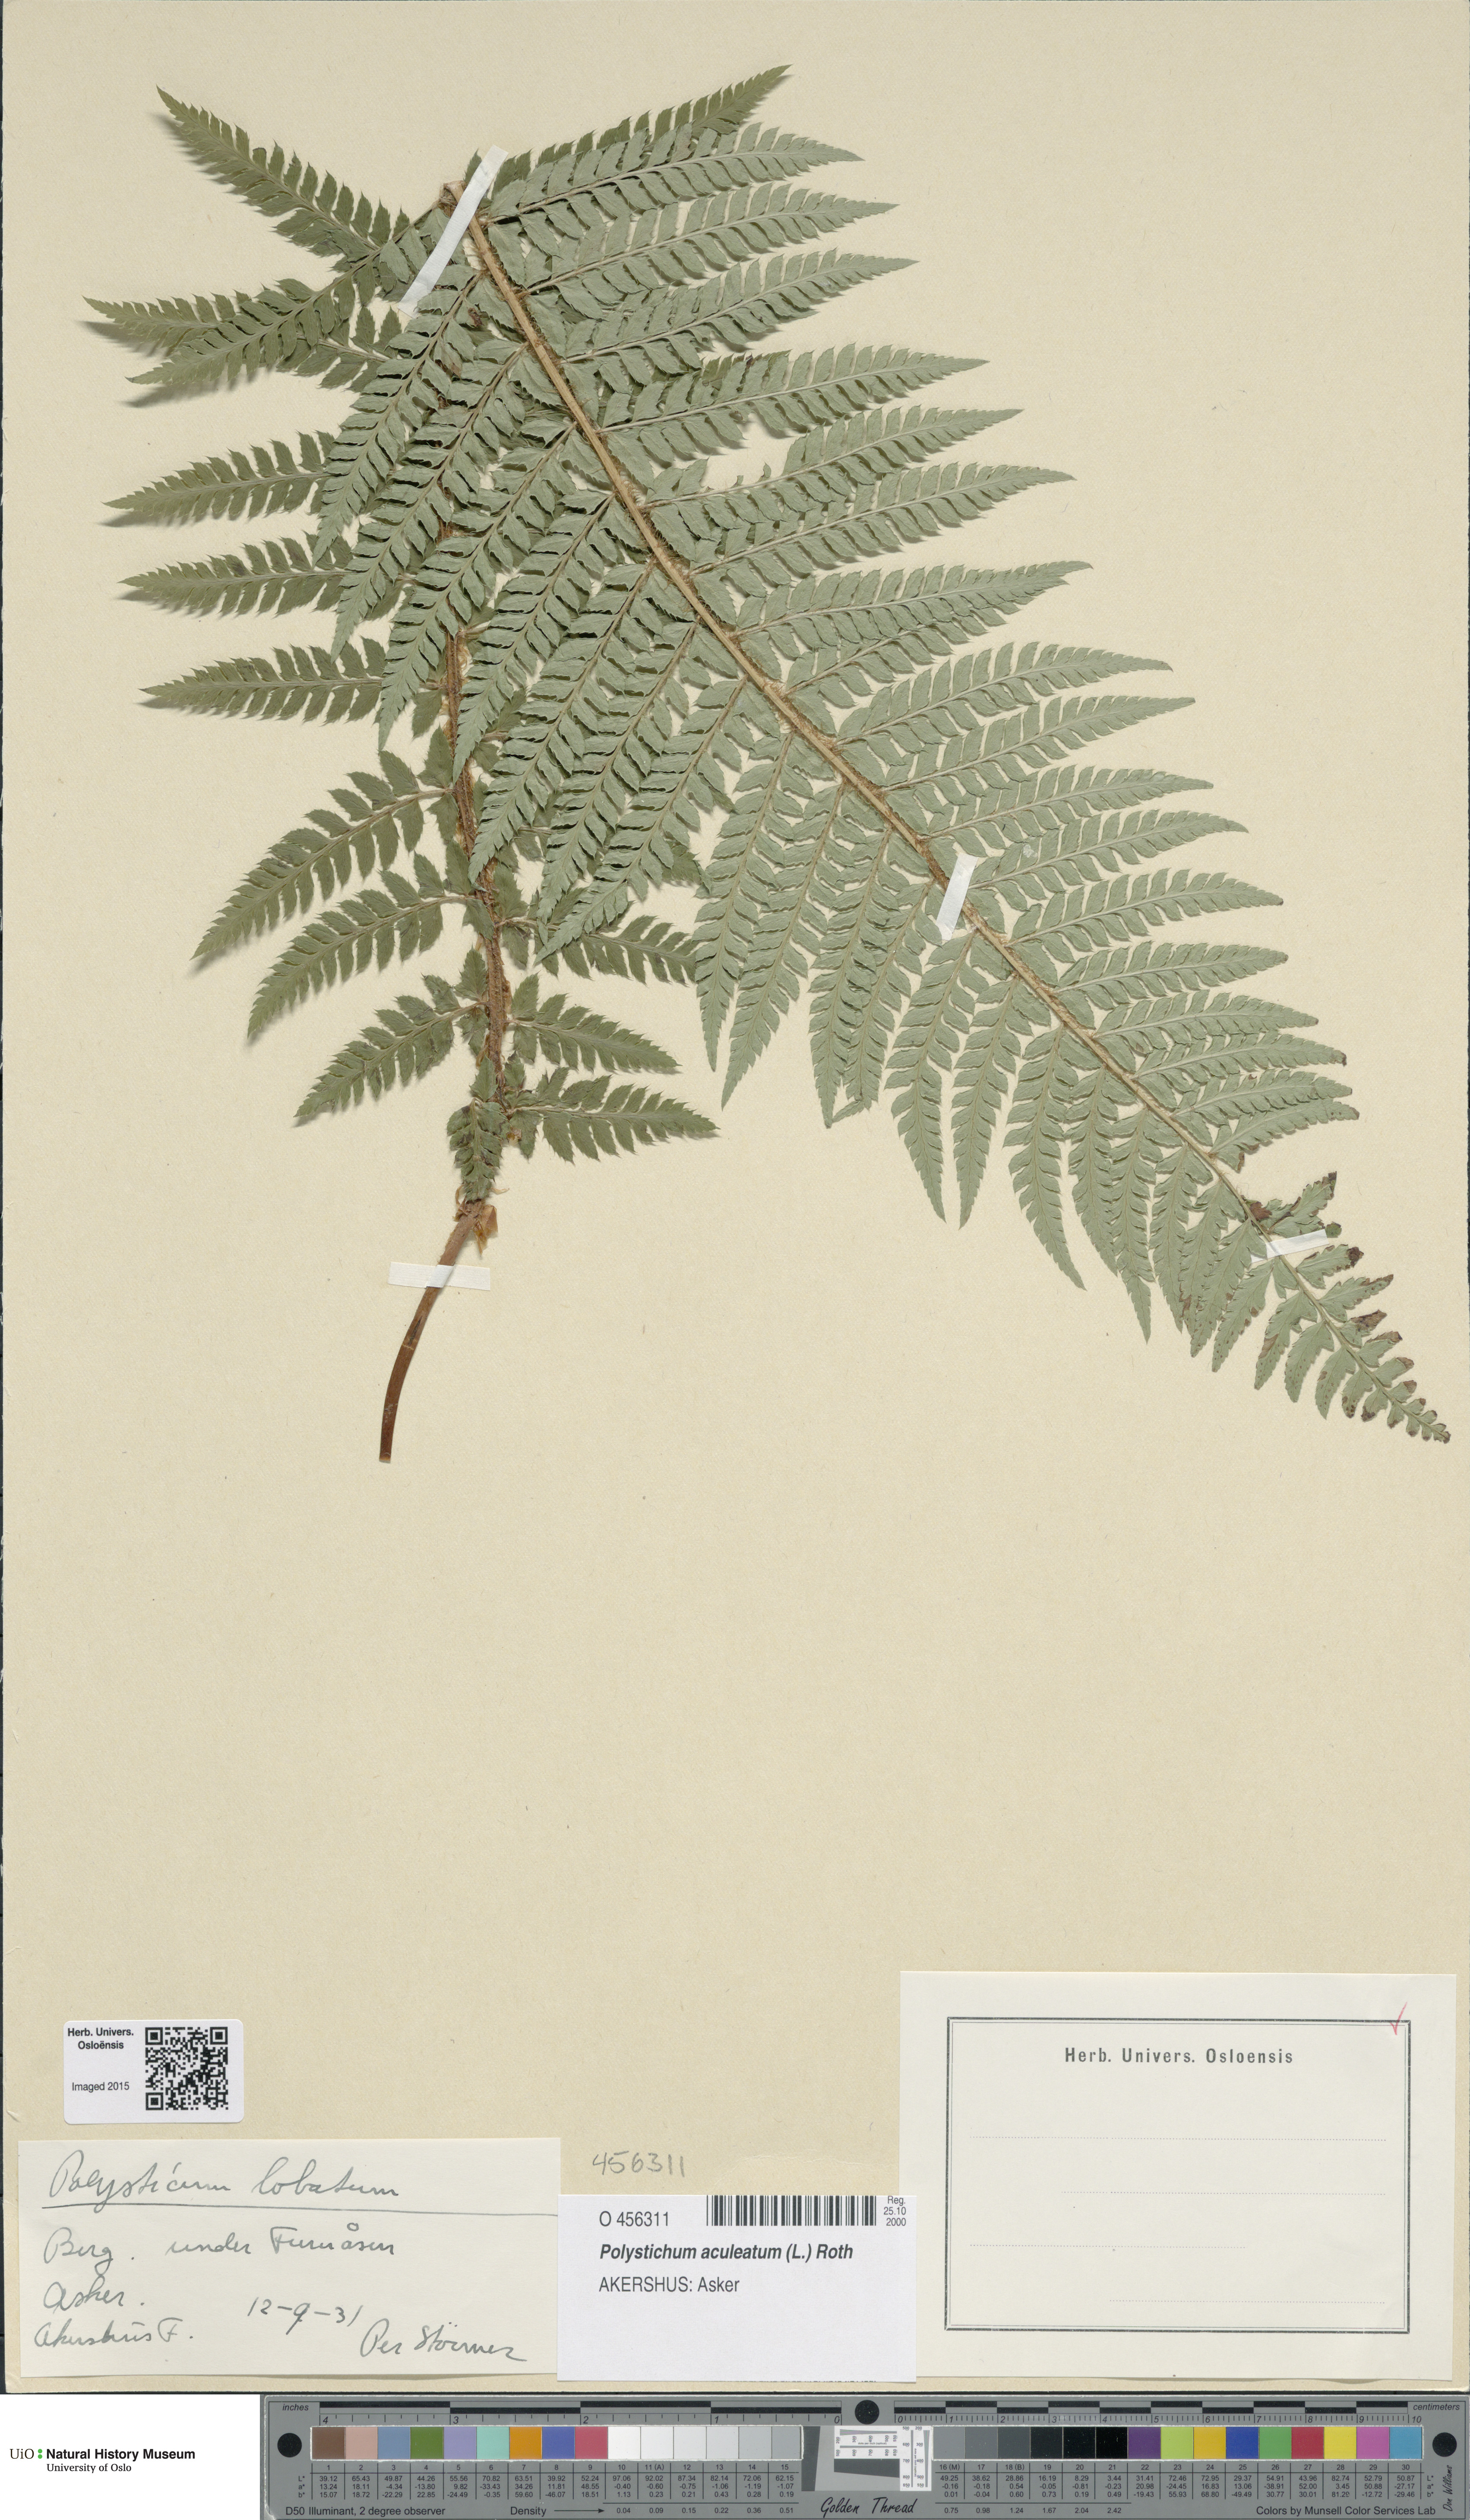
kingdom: Plantae
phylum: Tracheophyta
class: Polypodiopsida
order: Polypodiales
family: Dryopteridaceae
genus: Polystichum
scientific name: Polystichum aculeatum
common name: Hard shield-fern
